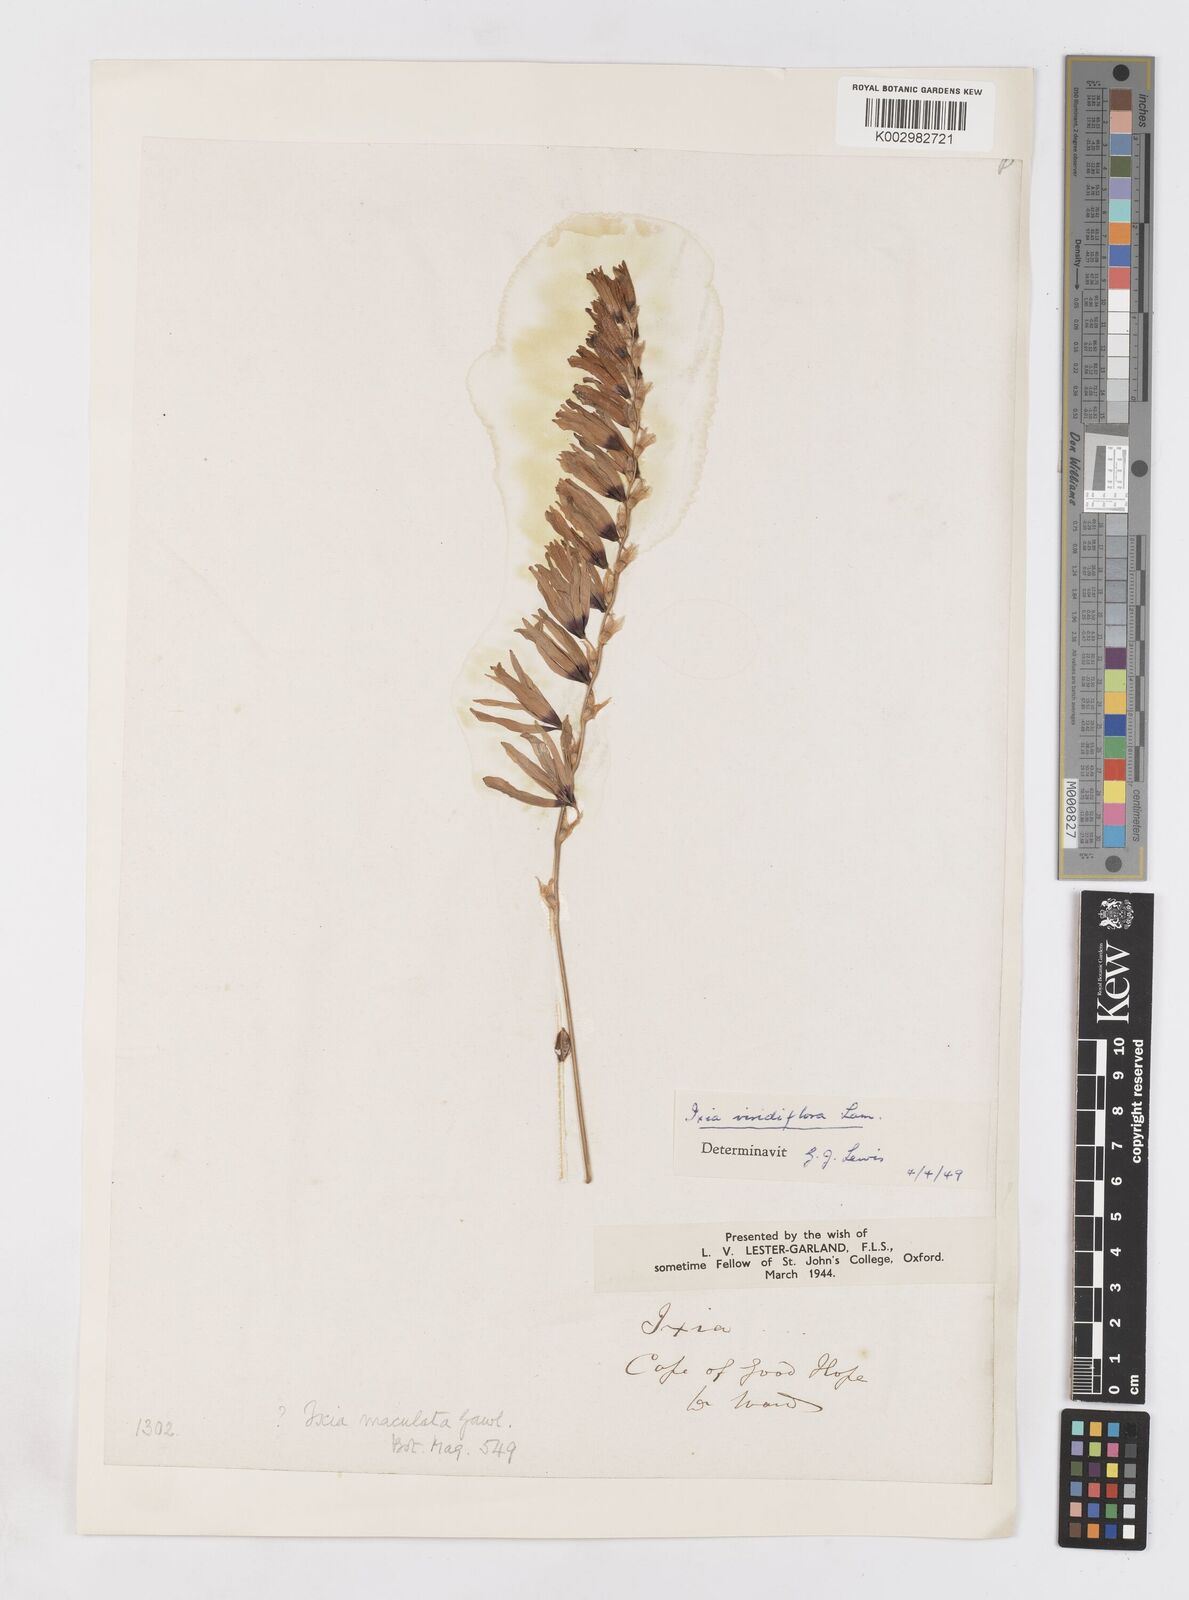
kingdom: Plantae
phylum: Tracheophyta
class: Liliopsida
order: Asparagales
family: Iridaceae
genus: Ixia
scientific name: Ixia viridiflora
